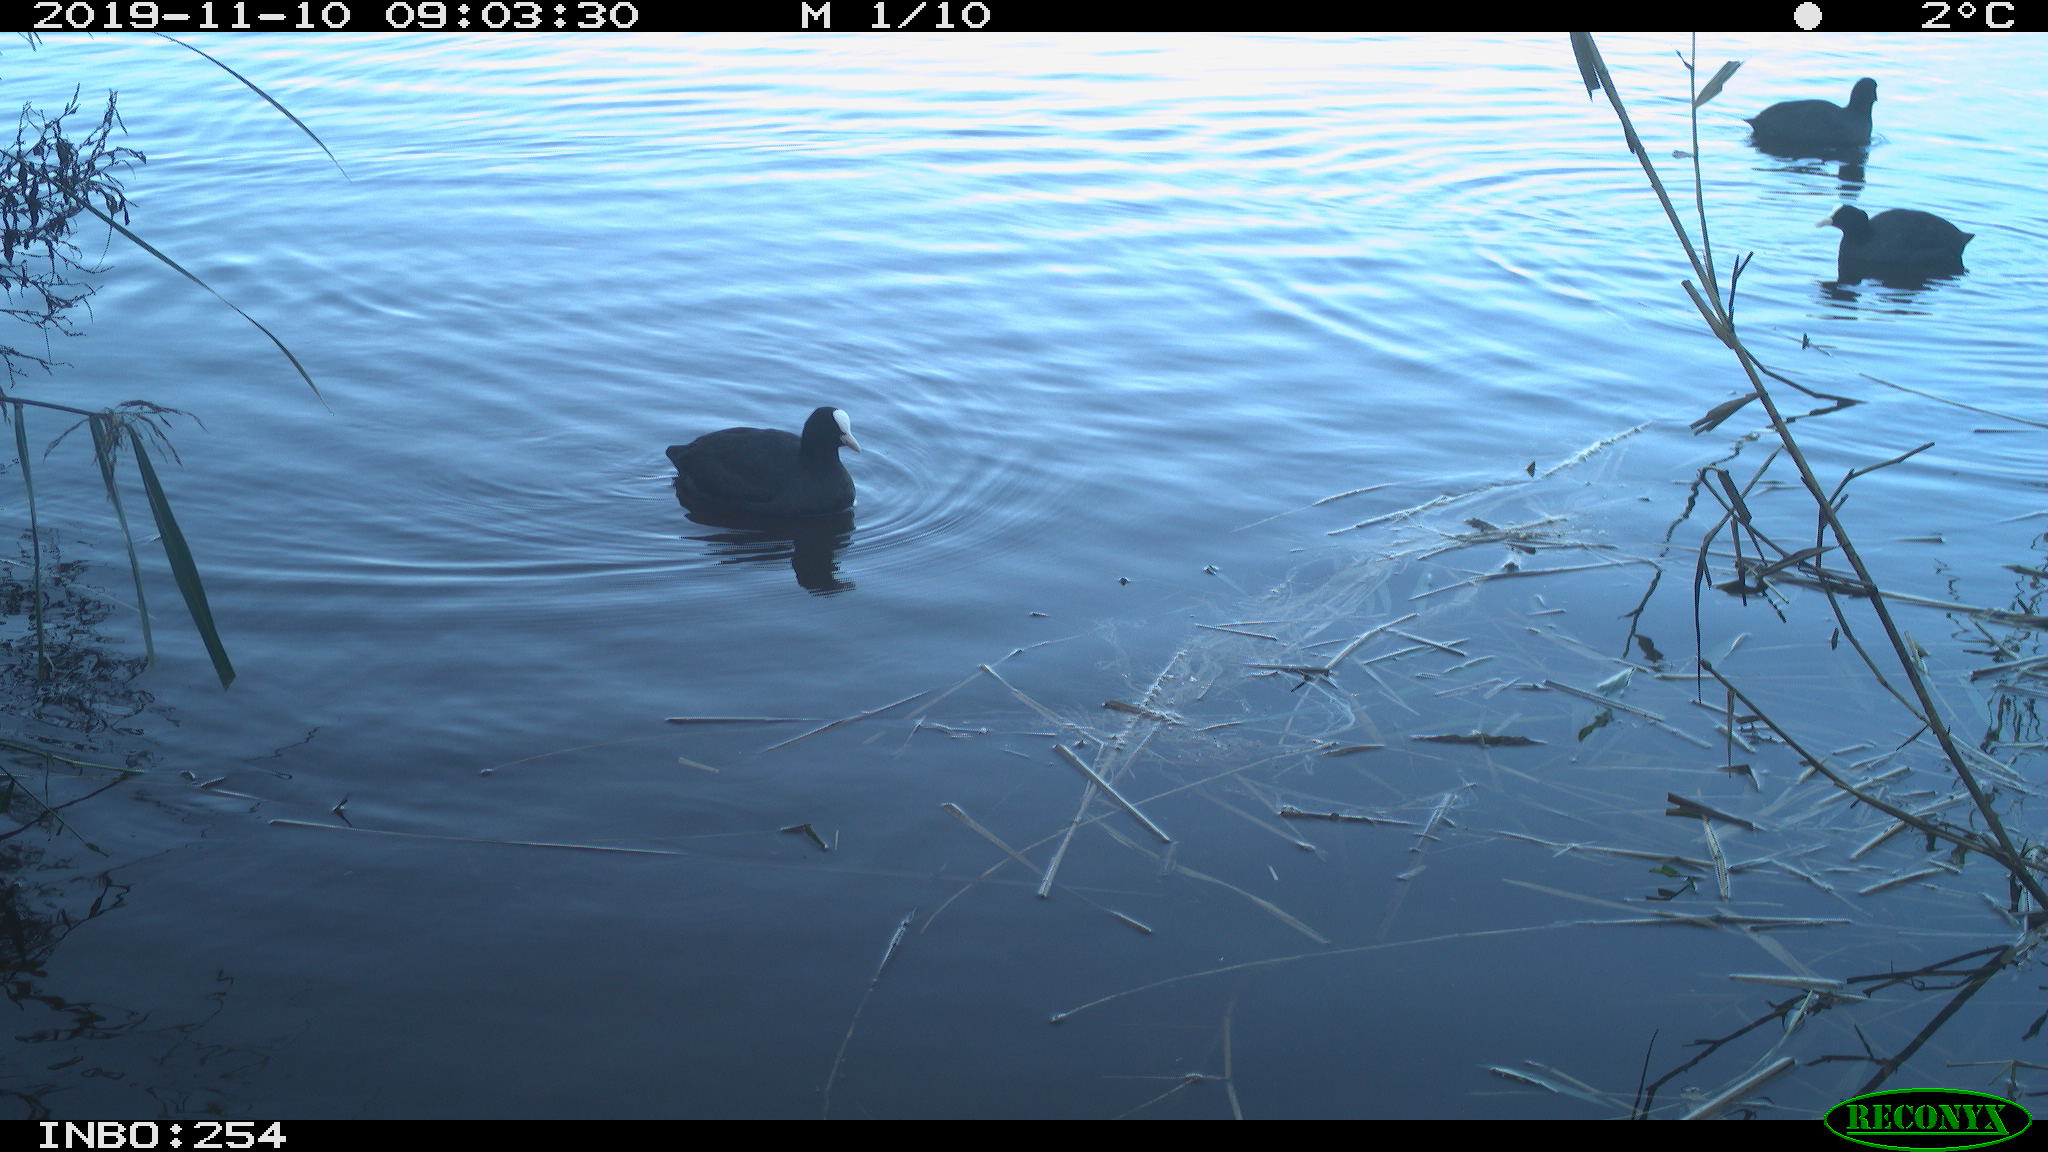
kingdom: Animalia
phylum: Chordata
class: Aves
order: Gruiformes
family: Rallidae
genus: Gallinula
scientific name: Gallinula chloropus
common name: Common moorhen
